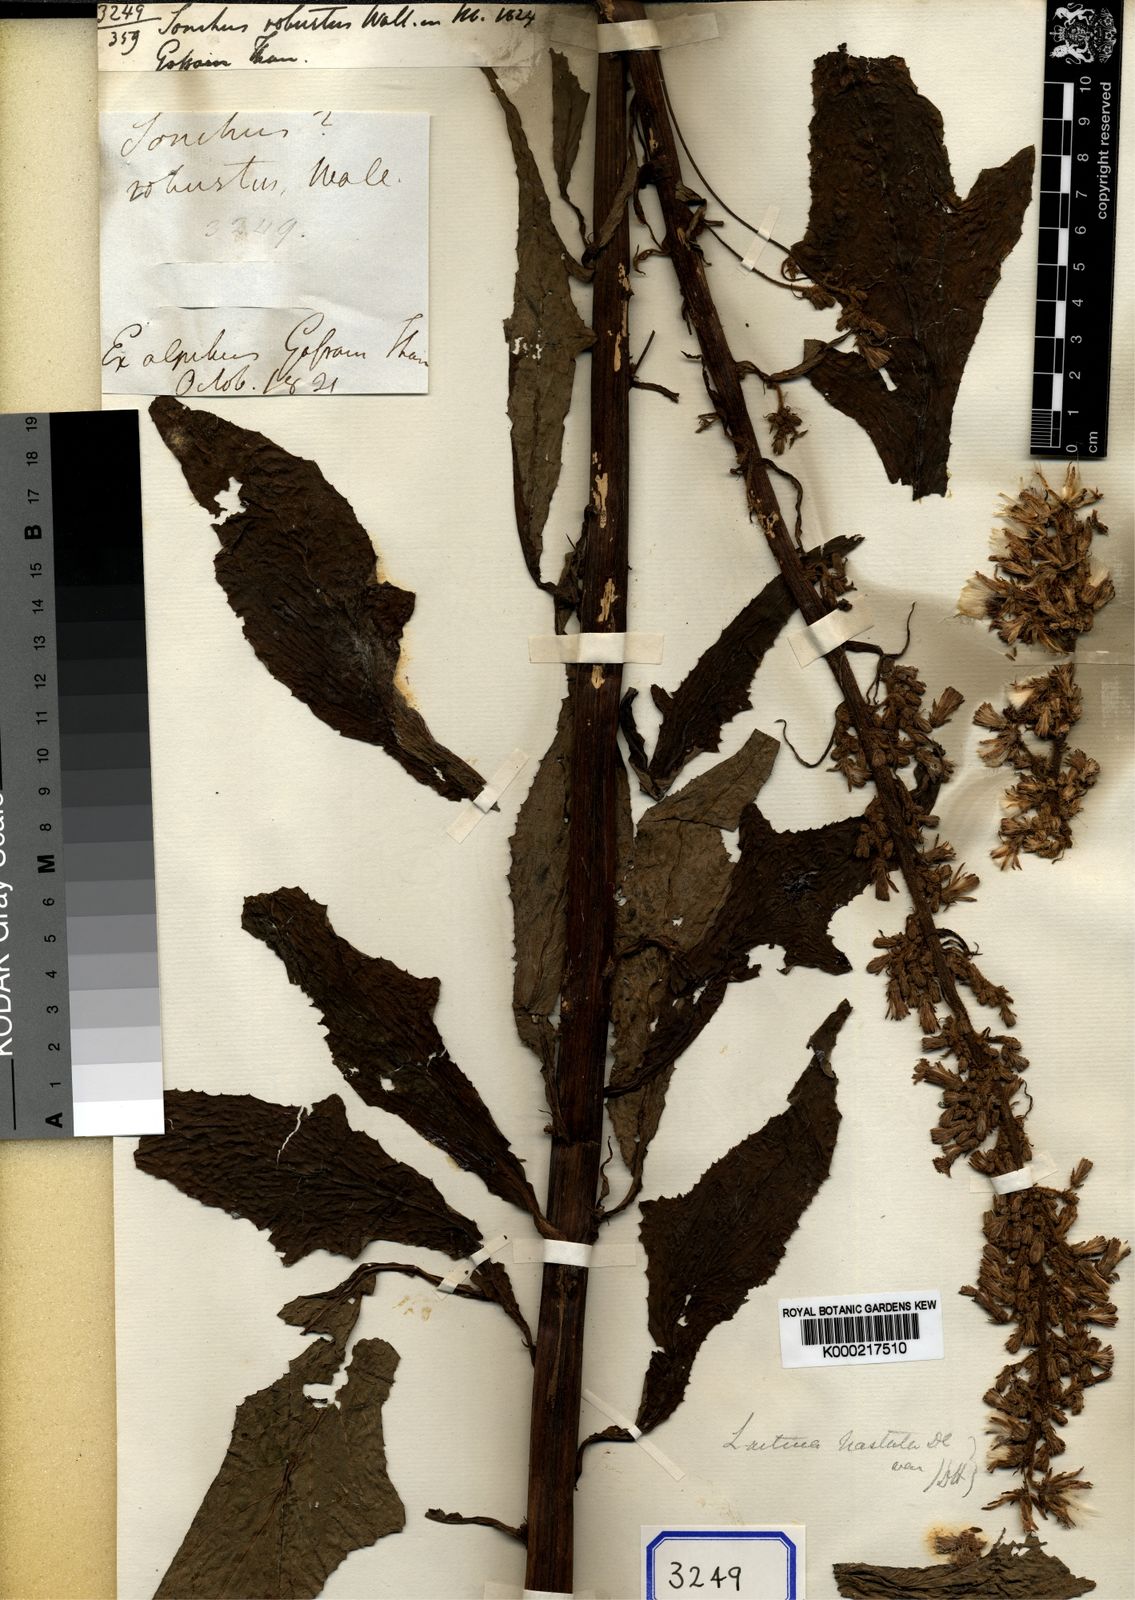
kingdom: Plantae
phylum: Tracheophyta
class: Magnoliopsida
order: Asterales
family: Asteraceae
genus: Melanoseris
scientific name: Melanoseris cyanea
